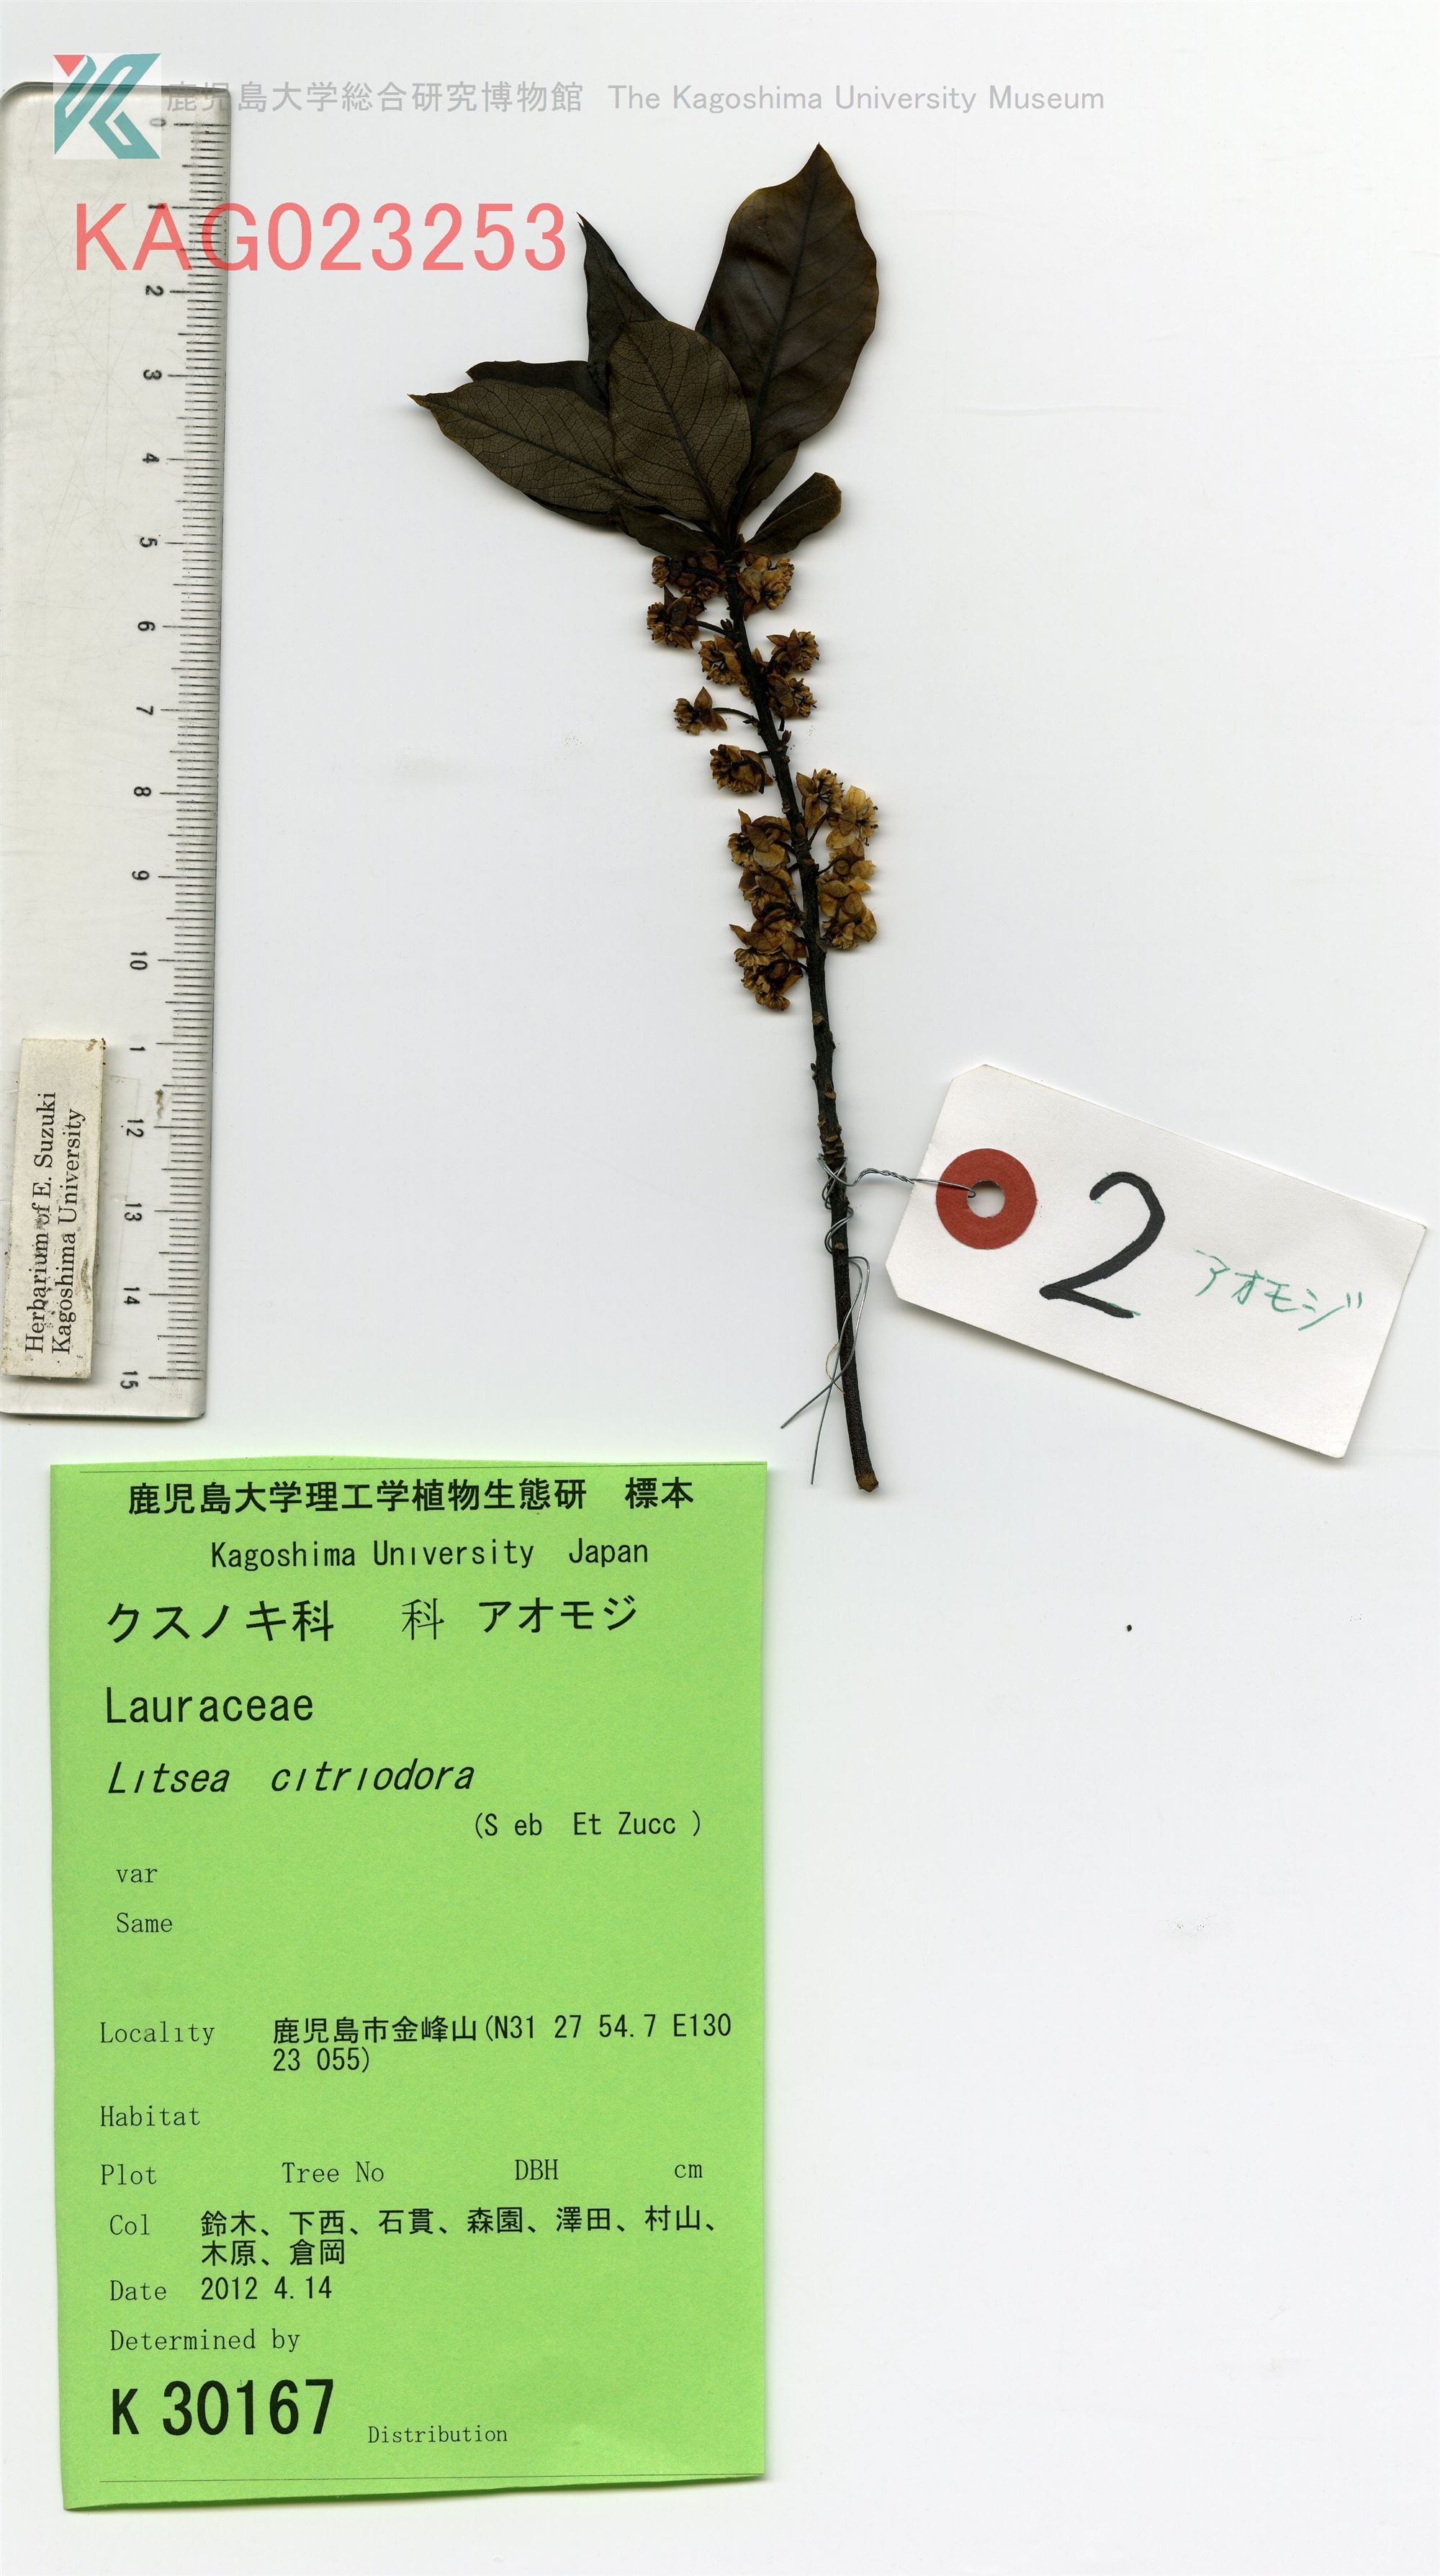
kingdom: Plantae
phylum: Tracheophyta
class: Magnoliopsida
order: Laurales
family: Lauraceae
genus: Litsea
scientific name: Litsea cubeba
